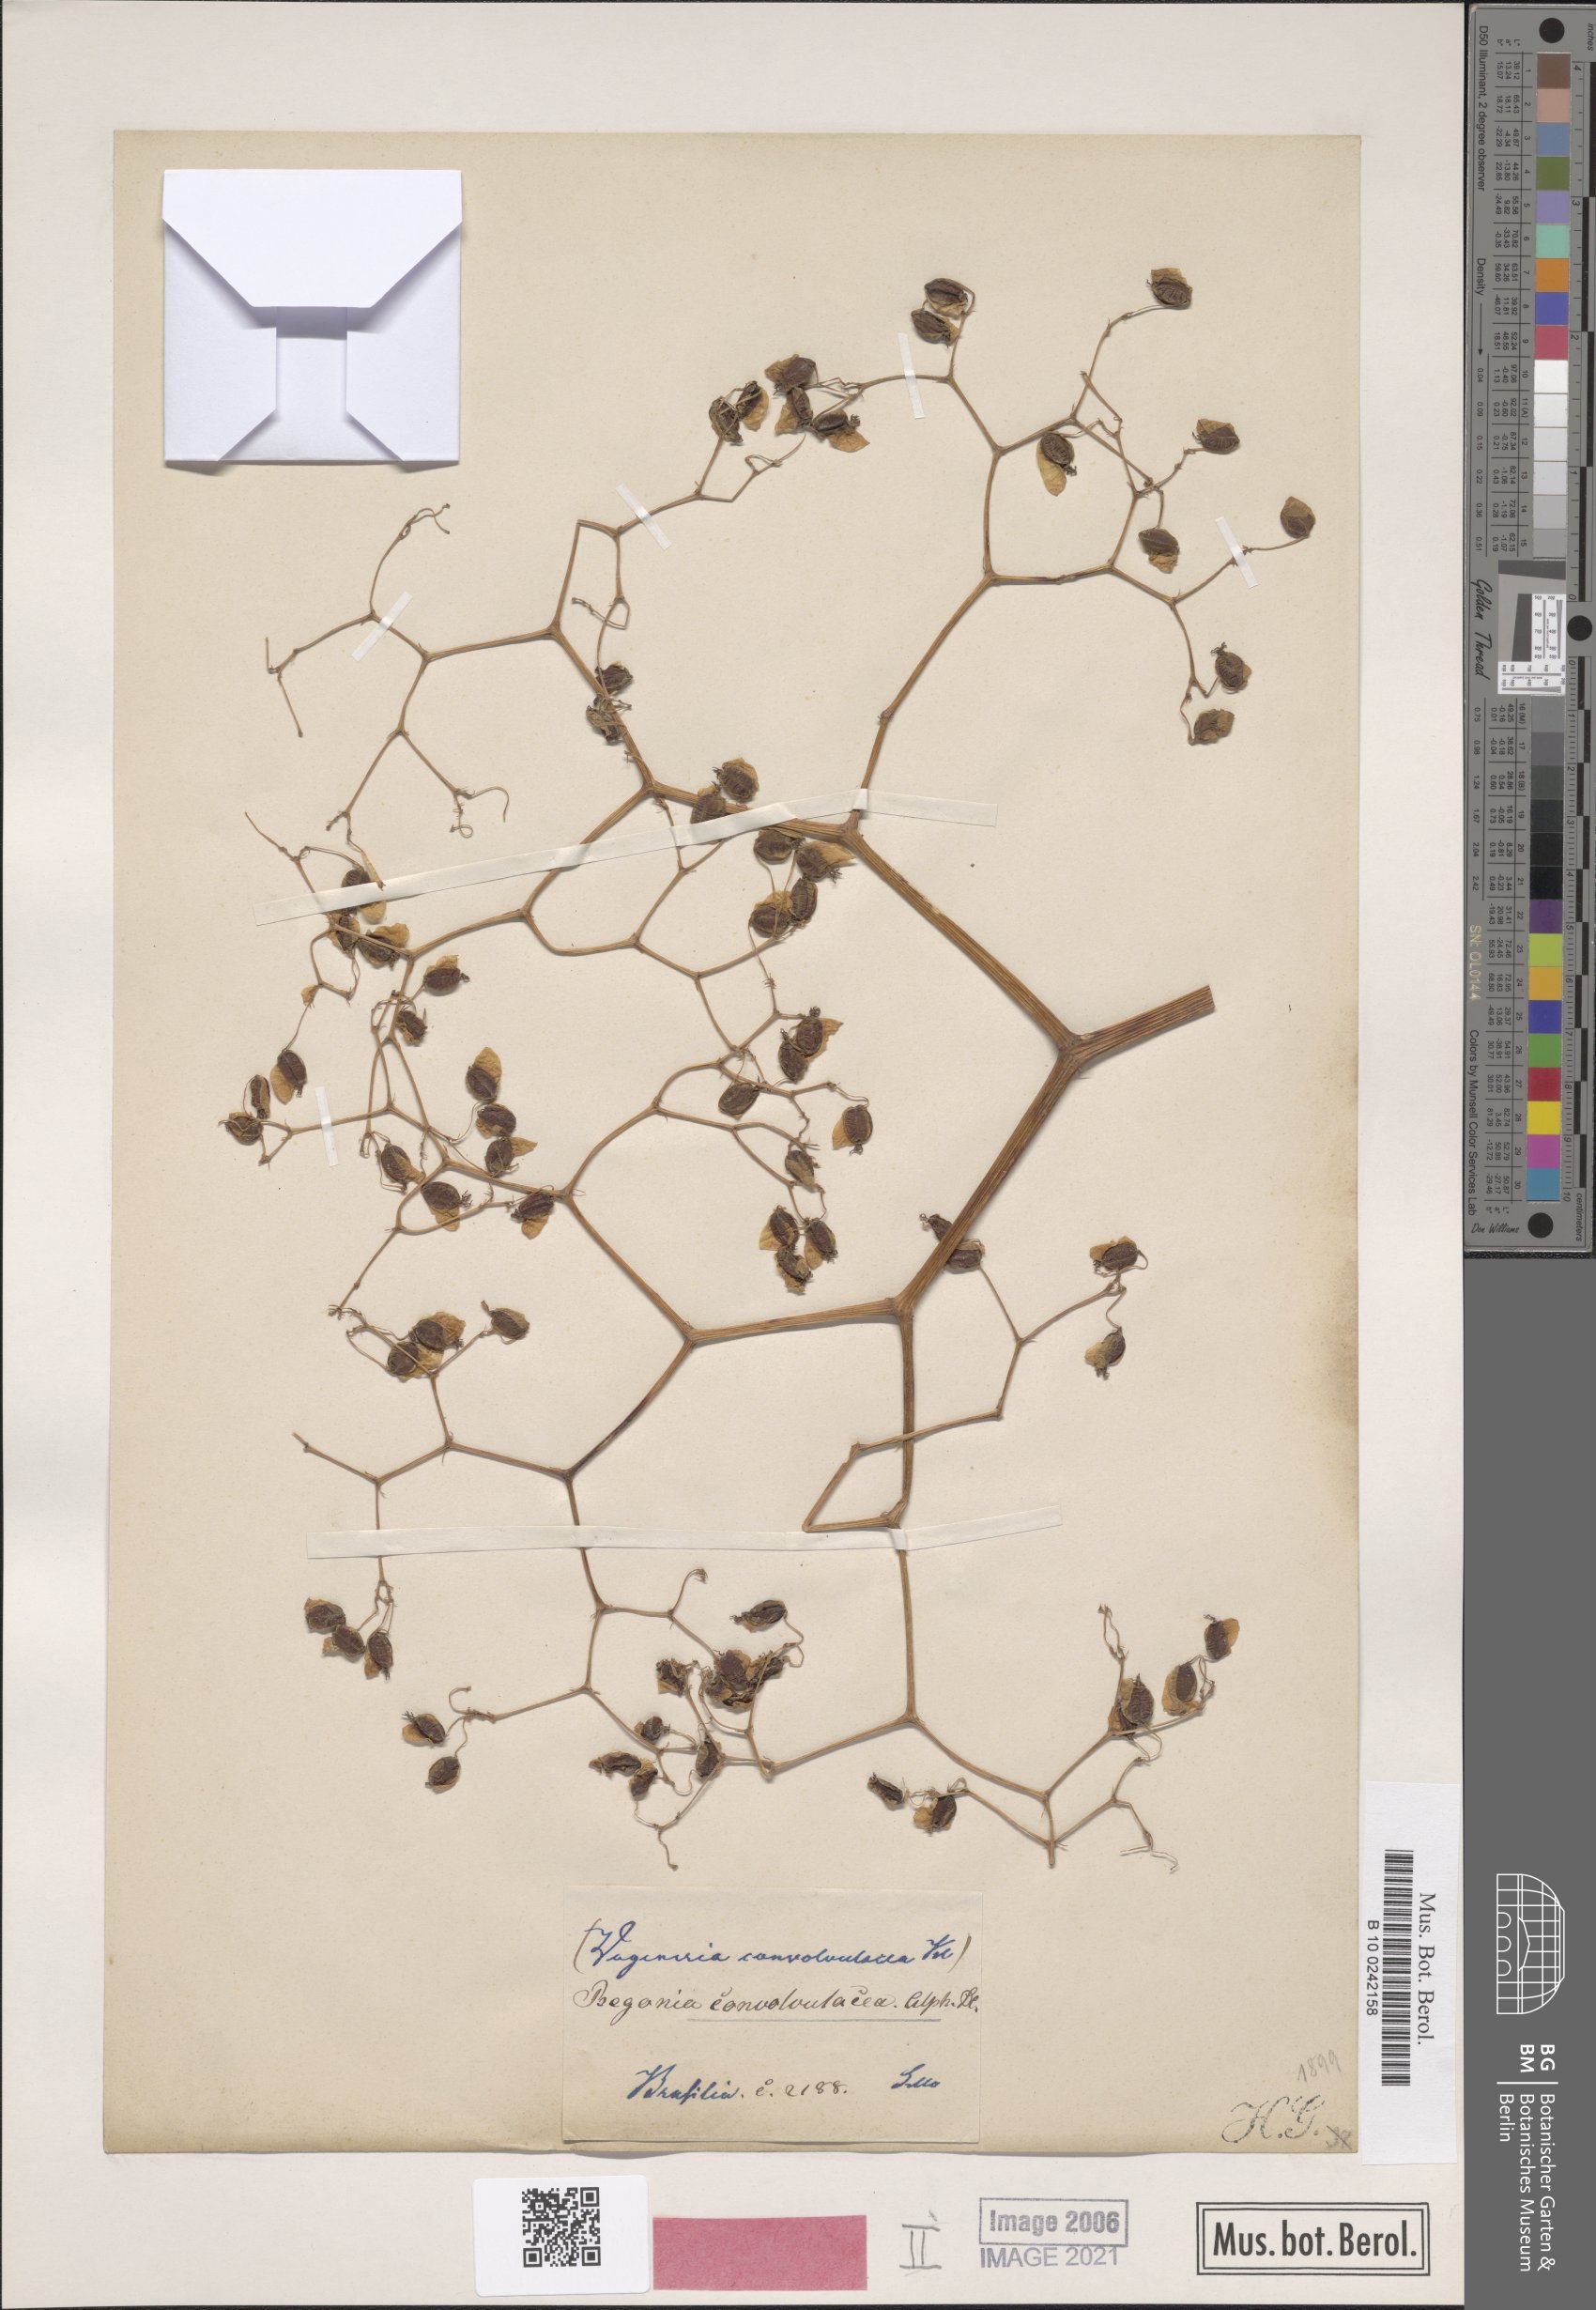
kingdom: Plantae
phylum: Tracheophyta
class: Magnoliopsida
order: Cucurbitales
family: Begoniaceae
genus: Begonia
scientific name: Begonia convolvulacea
